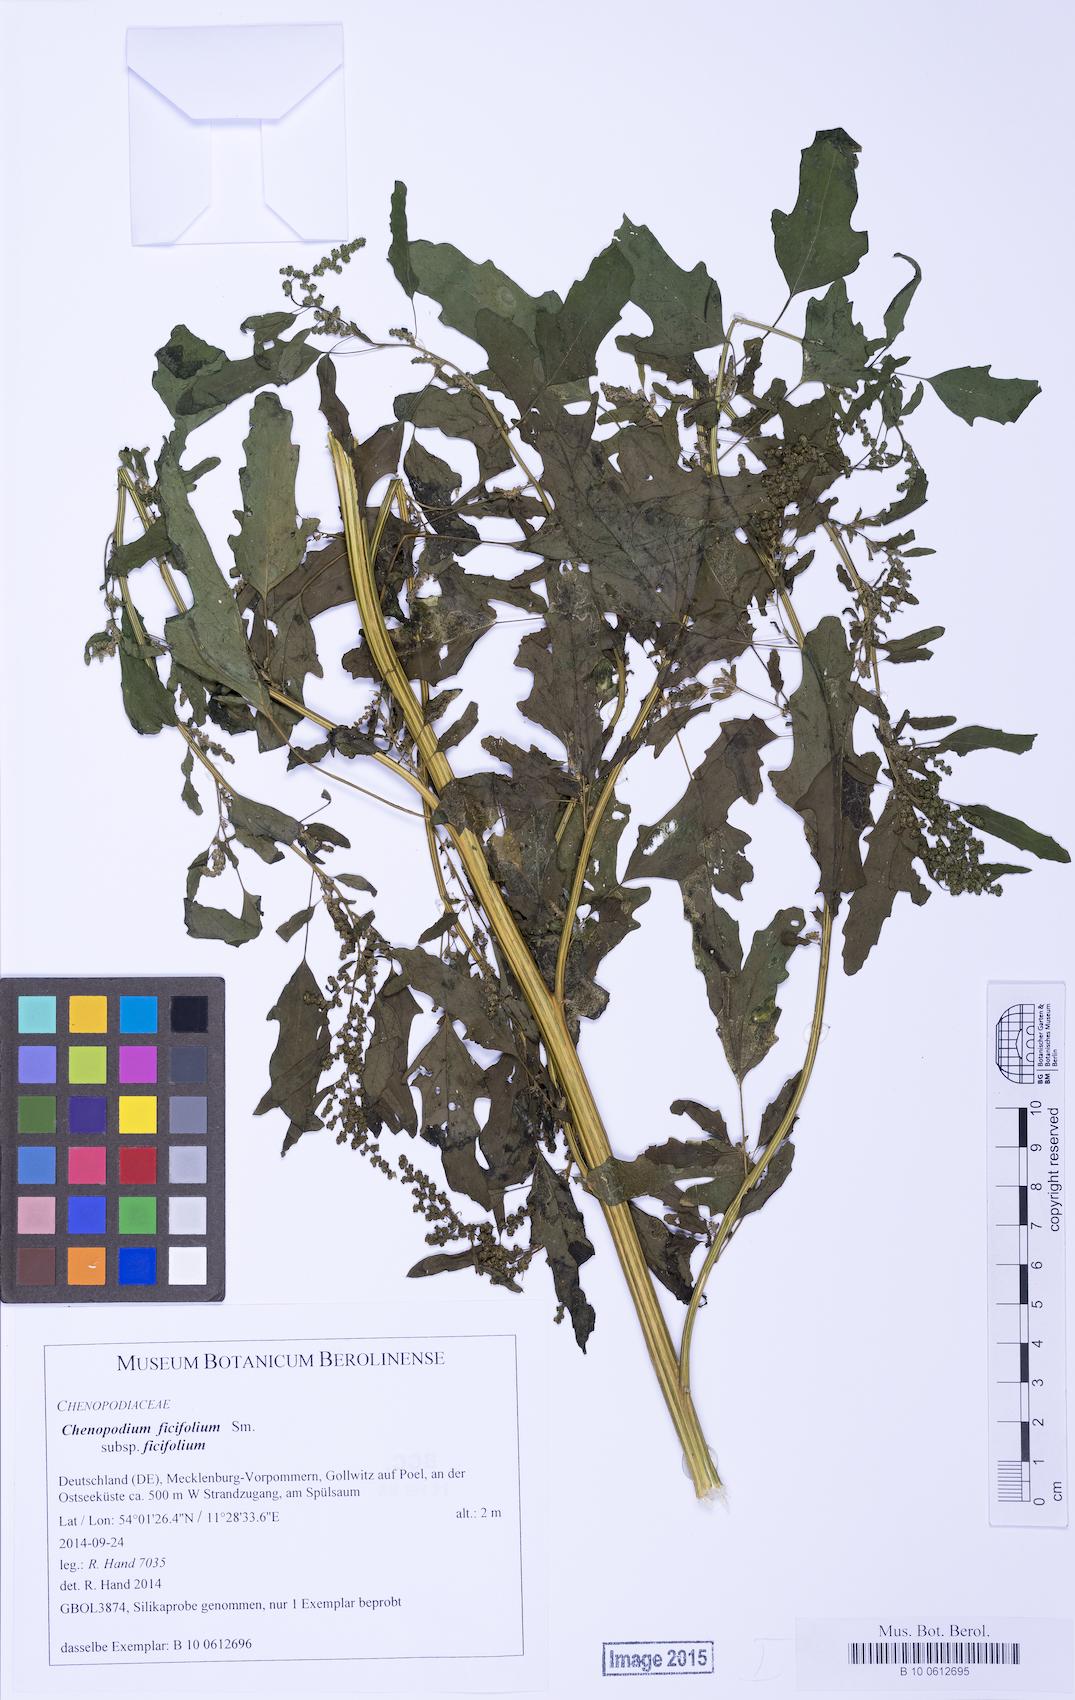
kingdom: Plantae
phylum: Tracheophyta
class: Magnoliopsida
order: Caryophyllales
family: Amaranthaceae
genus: Chenopodium
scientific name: Chenopodium ficifolium
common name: Fig-leaved goosefoot
